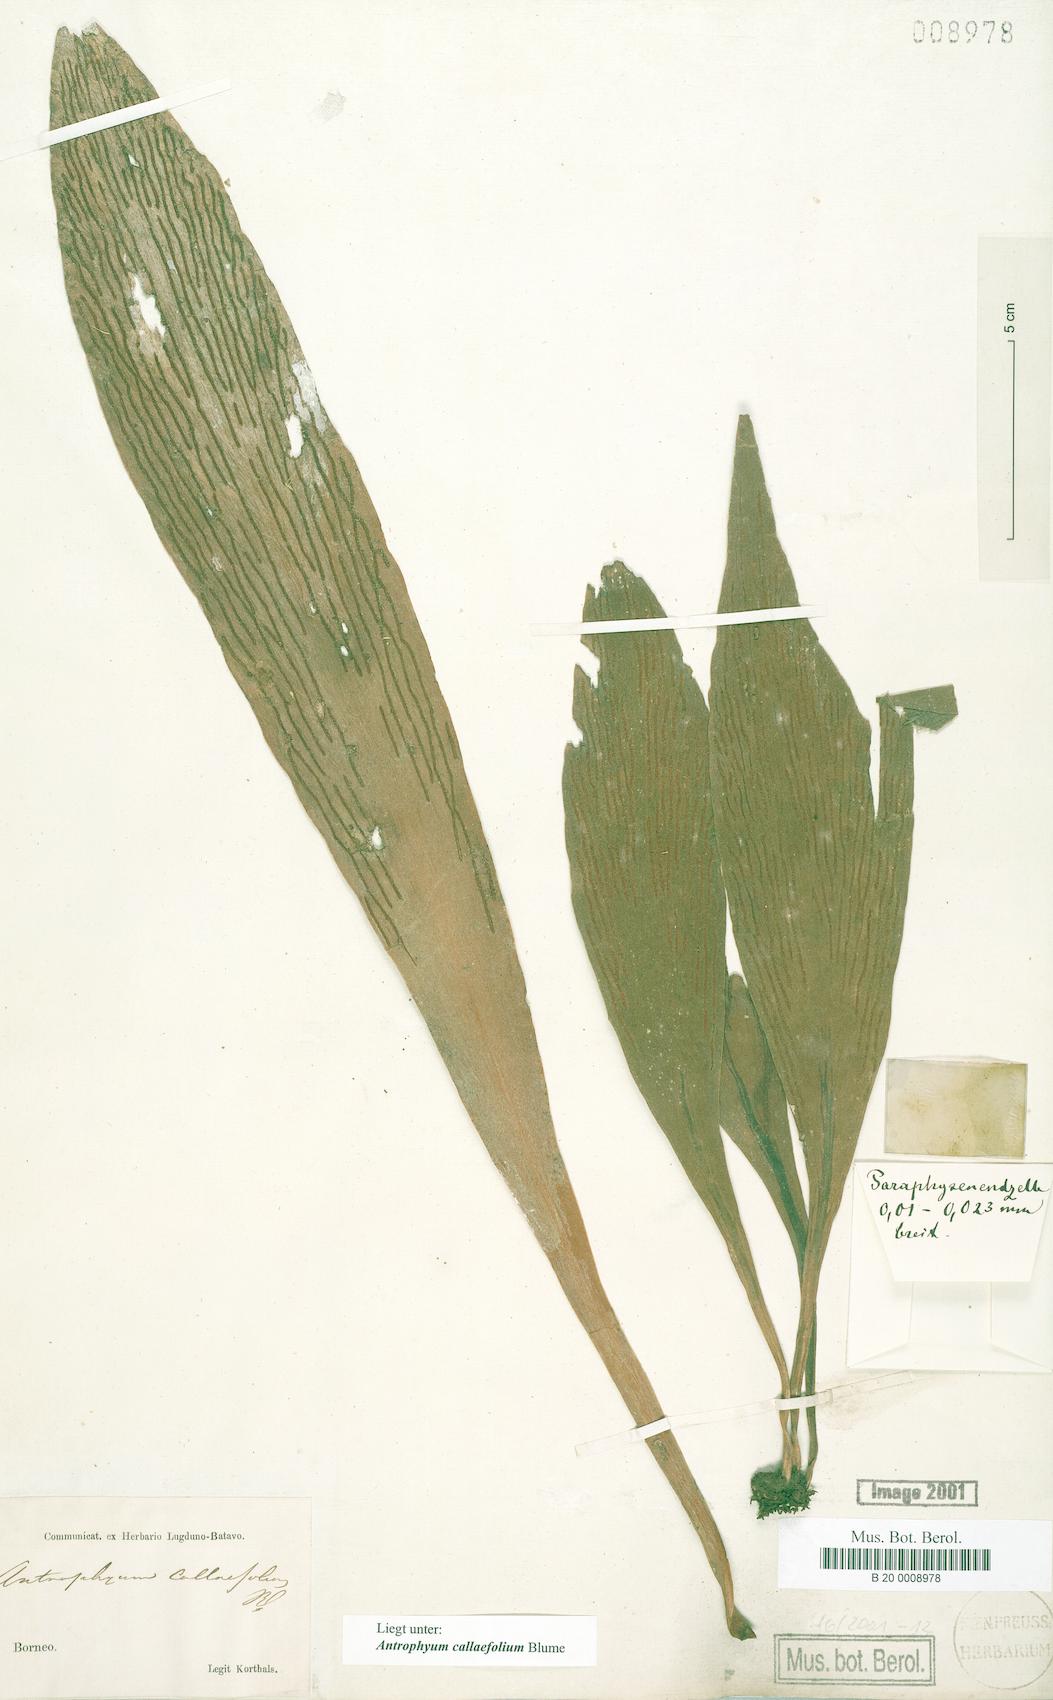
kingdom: Plantae
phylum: Tracheophyta
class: Polypodiopsida
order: Polypodiales
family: Pteridaceae
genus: Antrophyum
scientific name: Antrophyum callifolium
